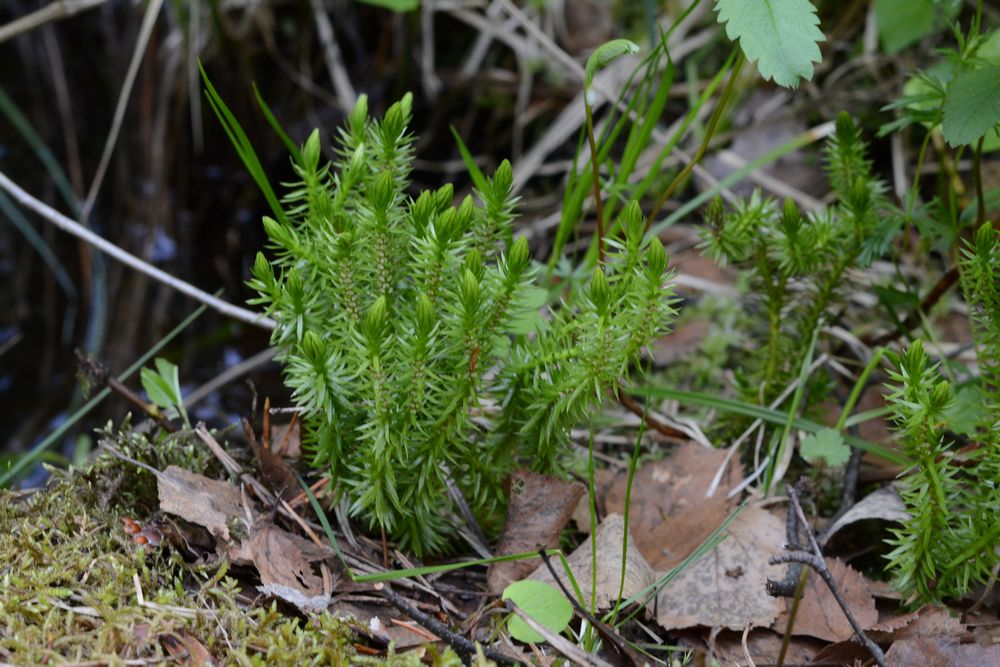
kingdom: Plantae
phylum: Tracheophyta
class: Lycopodiopsida
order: Lycopodiales
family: Lycopodiaceae
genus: Huperzia
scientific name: Huperzia selago
